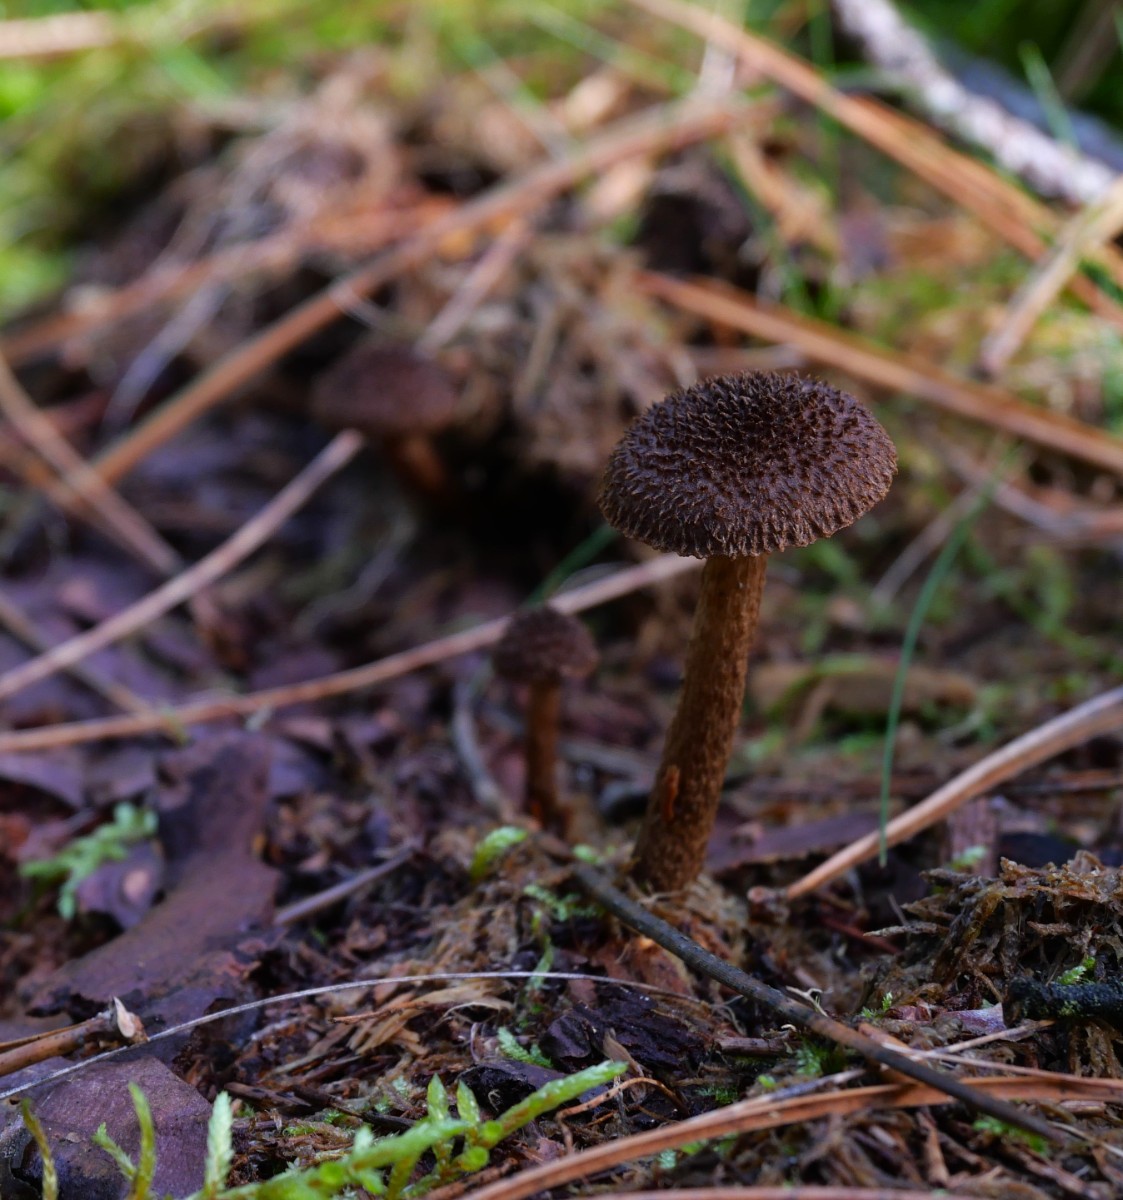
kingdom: Fungi
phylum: Basidiomycota
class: Agaricomycetes
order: Agaricales
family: Inocybaceae
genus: Inocybe
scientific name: Inocybe
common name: trævlhat
